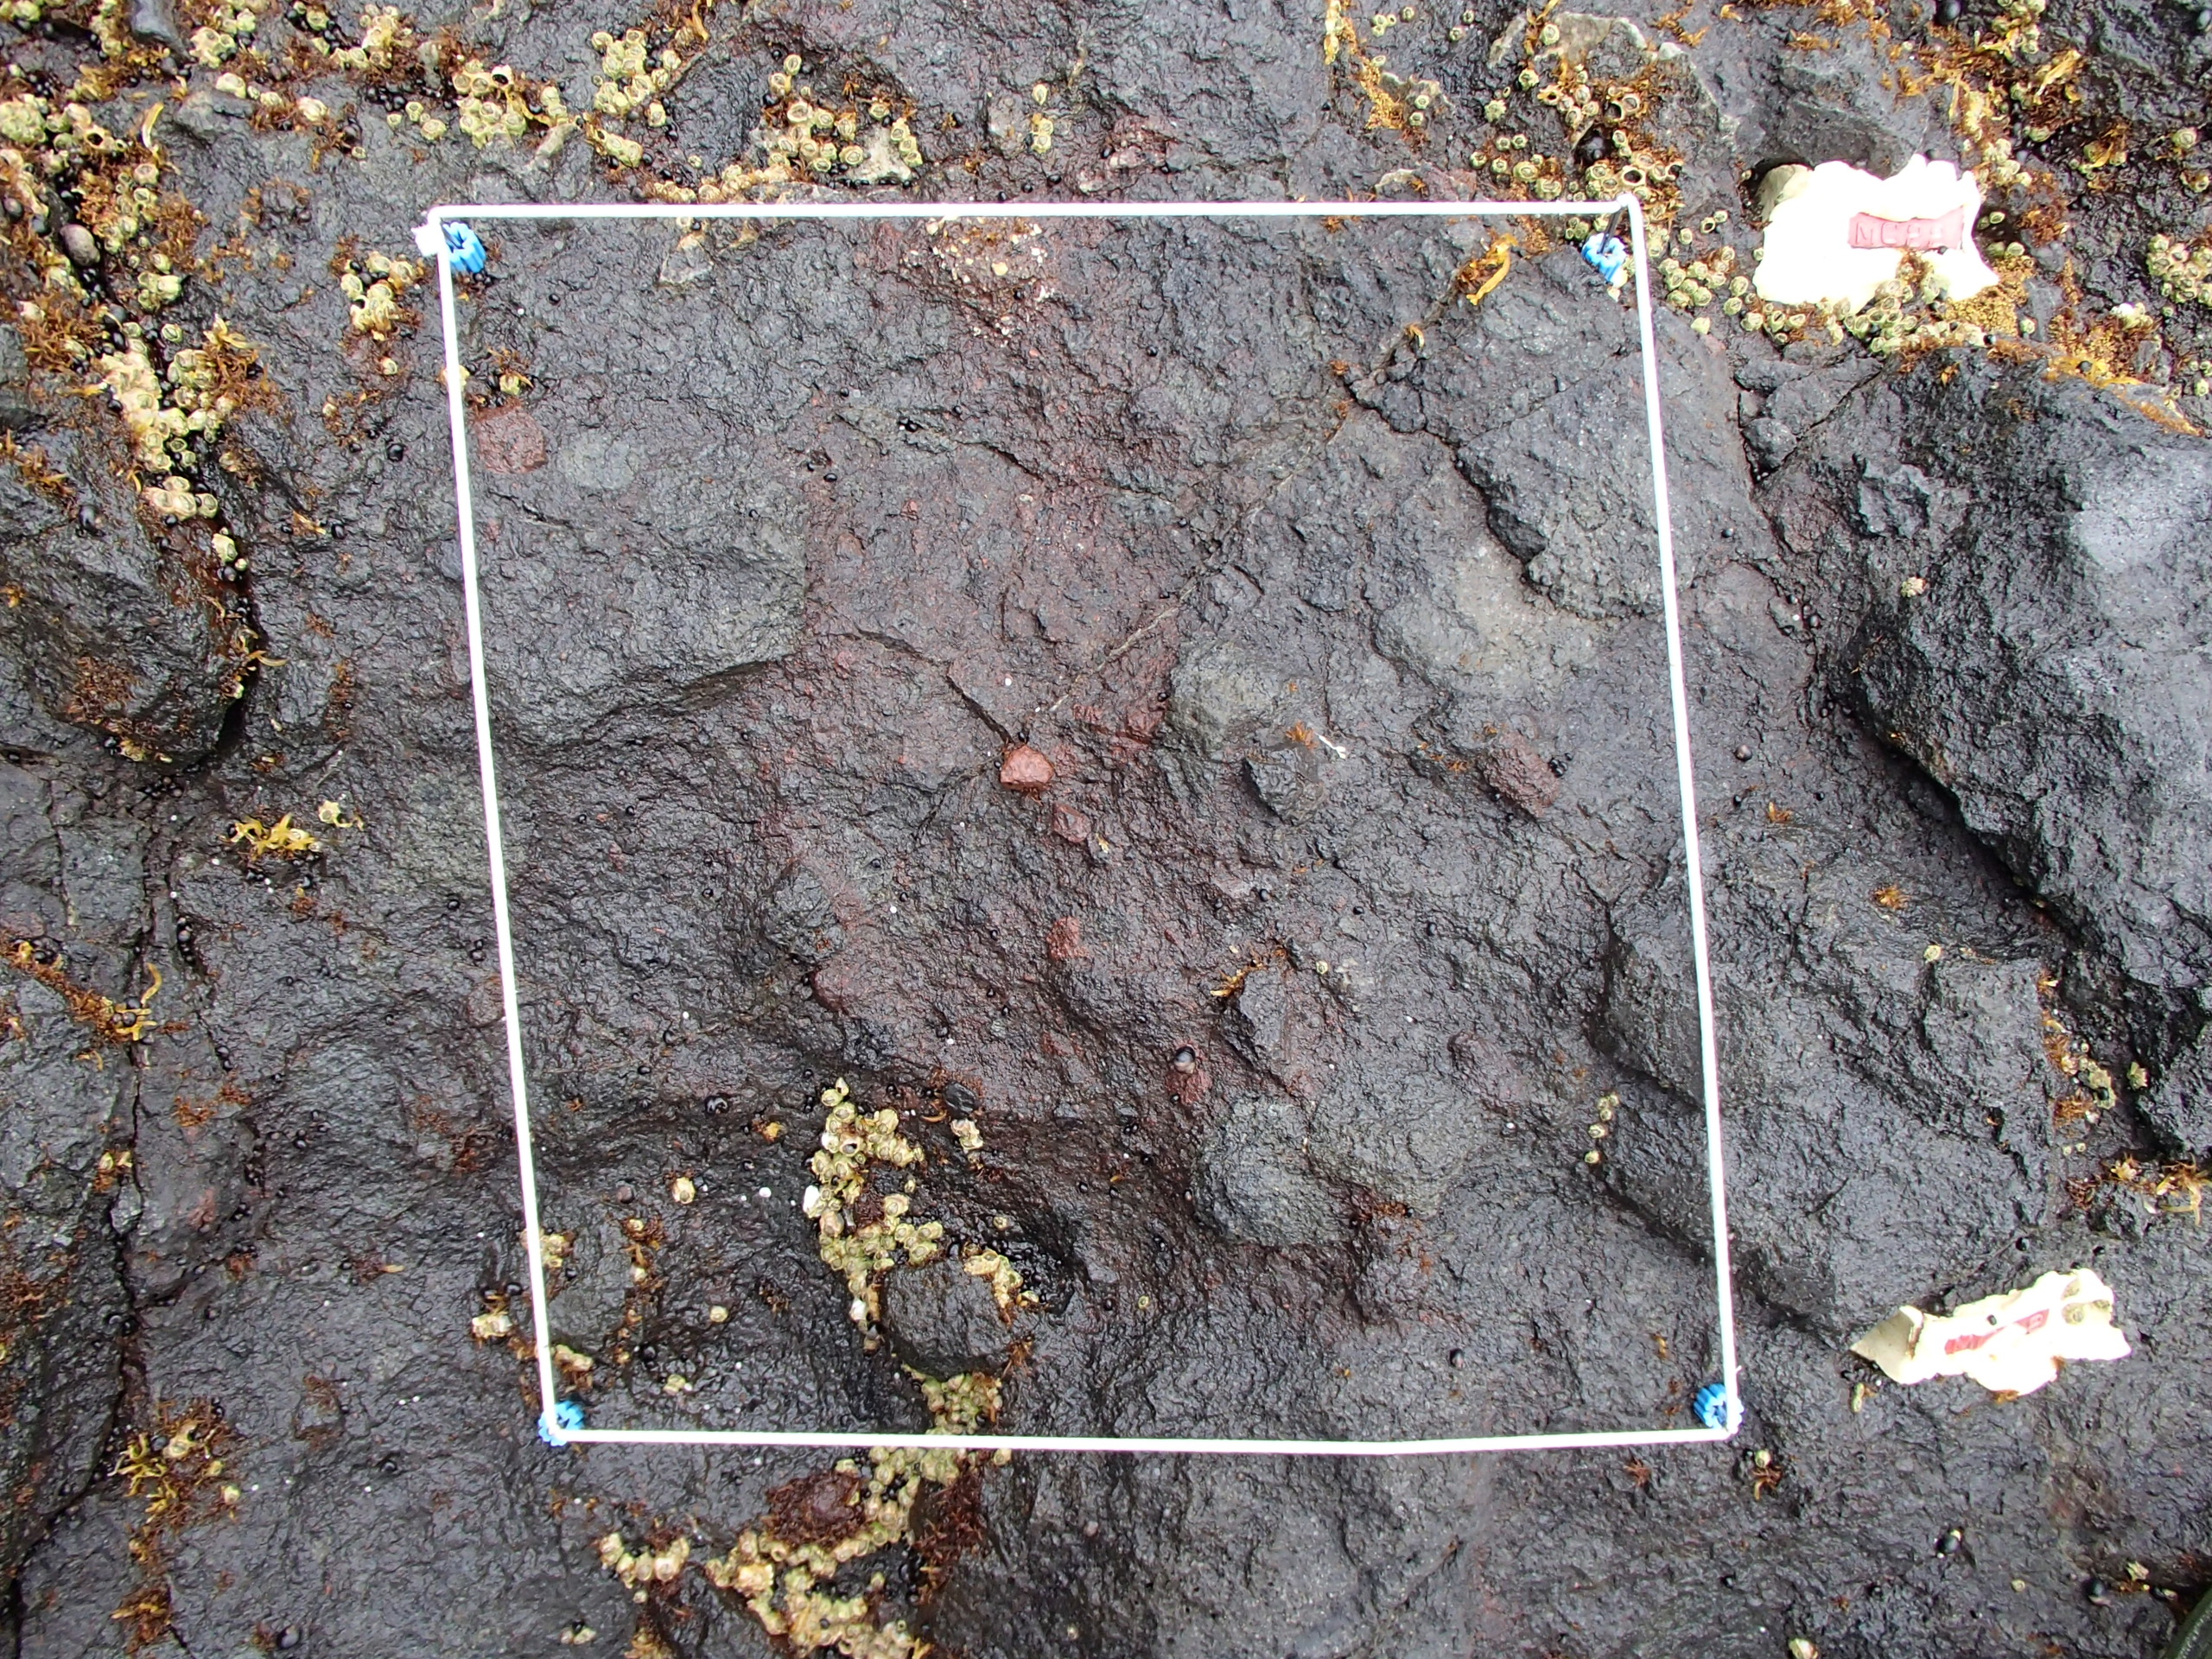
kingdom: Animalia
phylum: Arthropoda
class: Maxillopoda
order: Sessilia
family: Chthamalidae
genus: Chthamalus
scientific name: Chthamalus dalli
